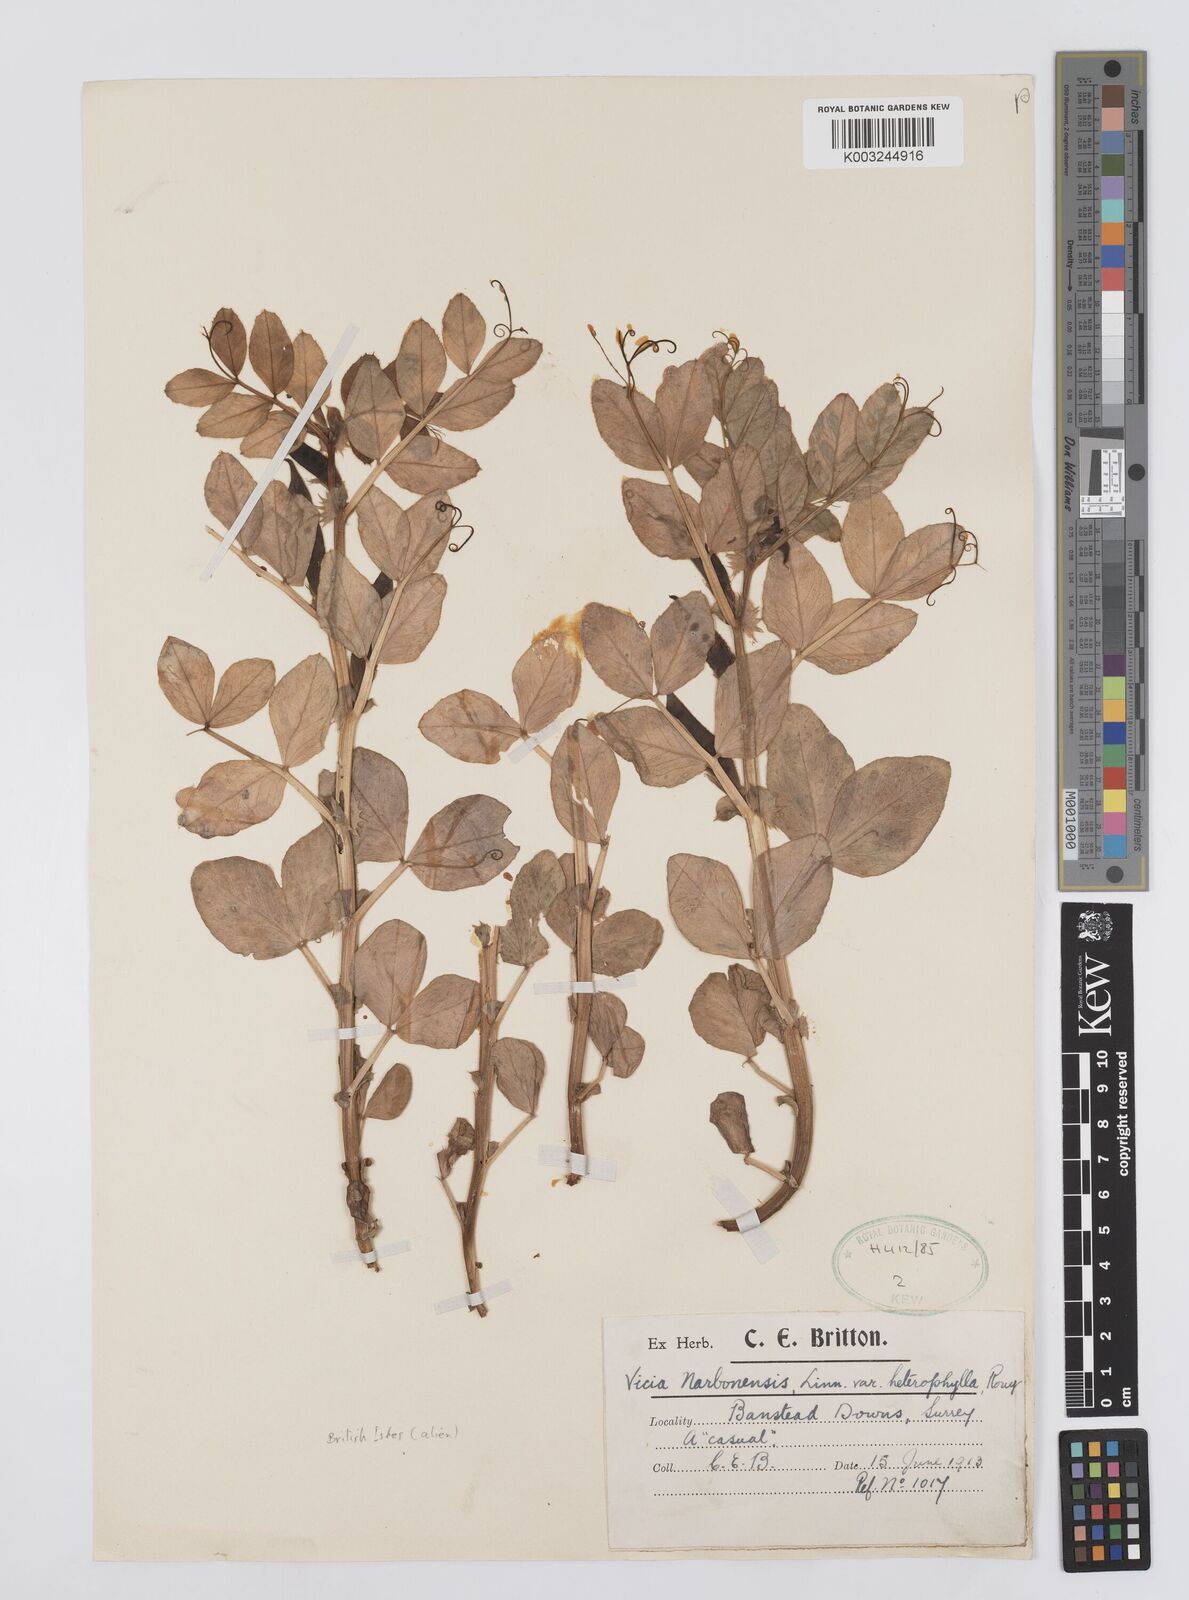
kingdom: Plantae
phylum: Tracheophyta
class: Magnoliopsida
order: Fabales
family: Fabaceae
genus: Vicia
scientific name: Vicia narbonensis
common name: Narbonne vetch
